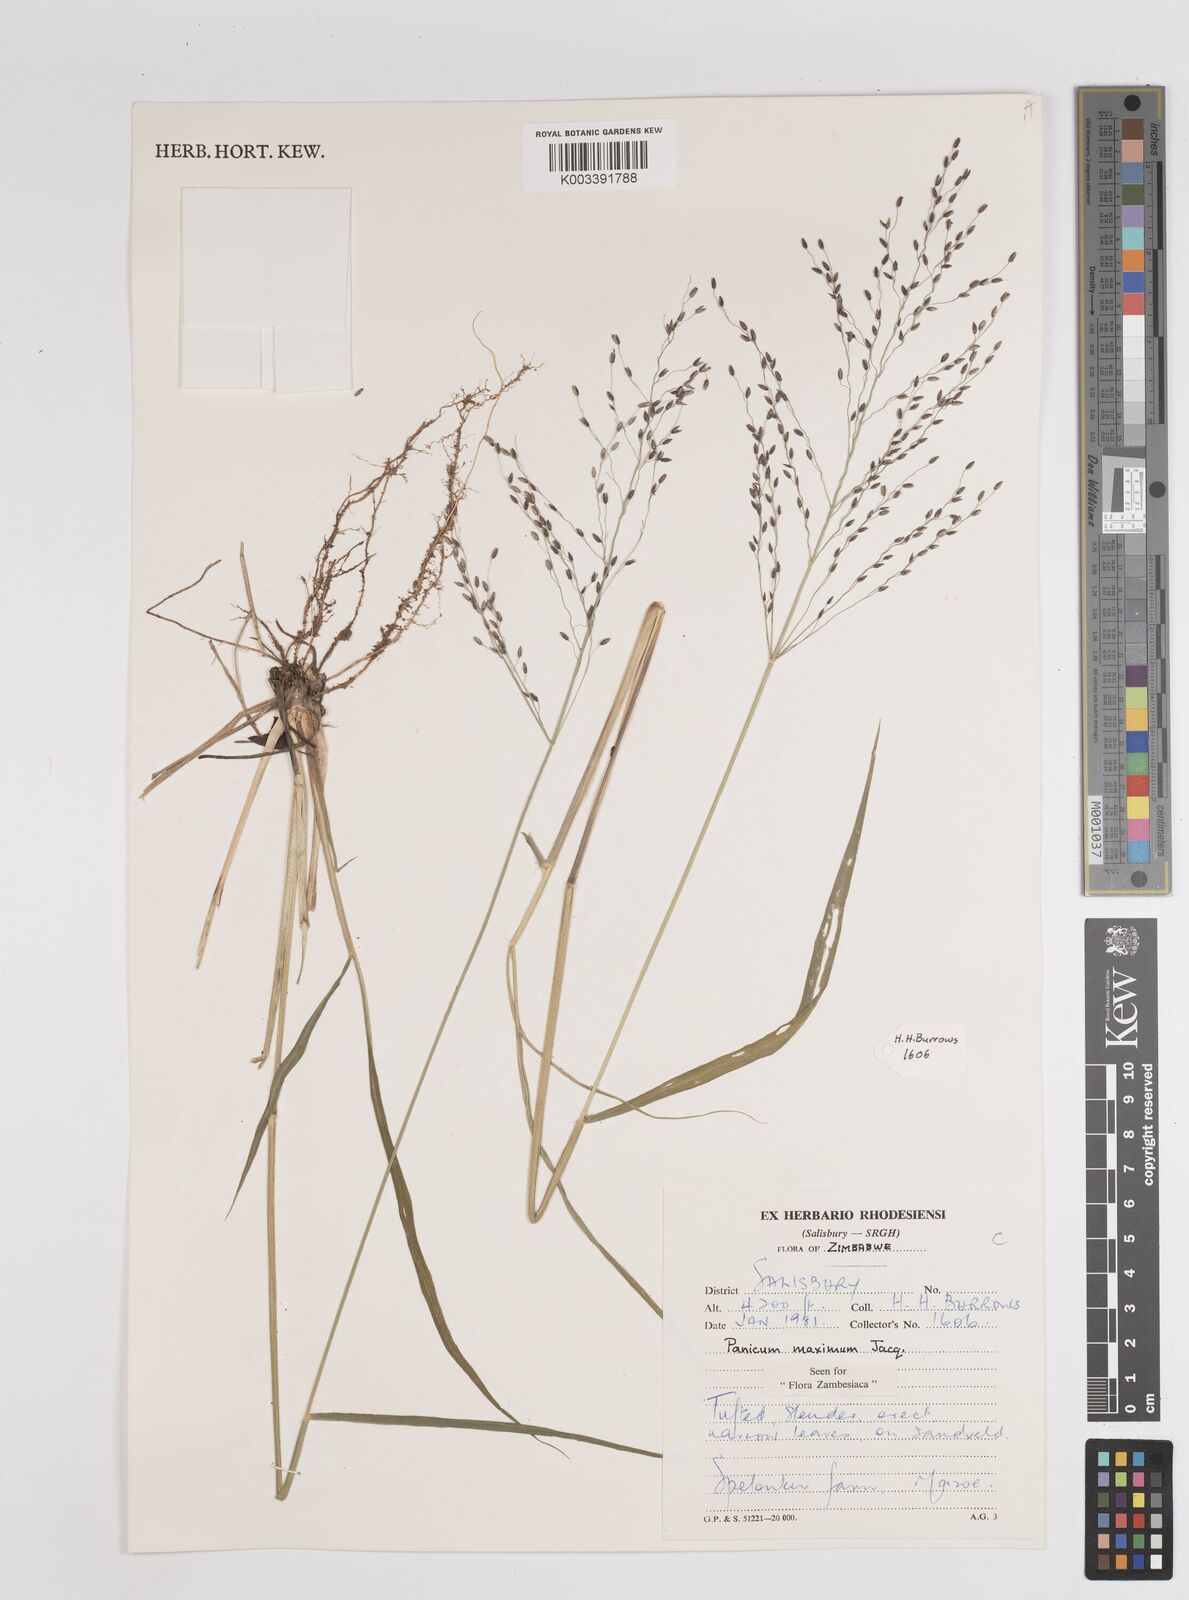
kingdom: Plantae
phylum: Tracheophyta
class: Liliopsida
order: Poales
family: Poaceae
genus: Megathyrsus
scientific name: Megathyrsus maximus
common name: Guineagrass
